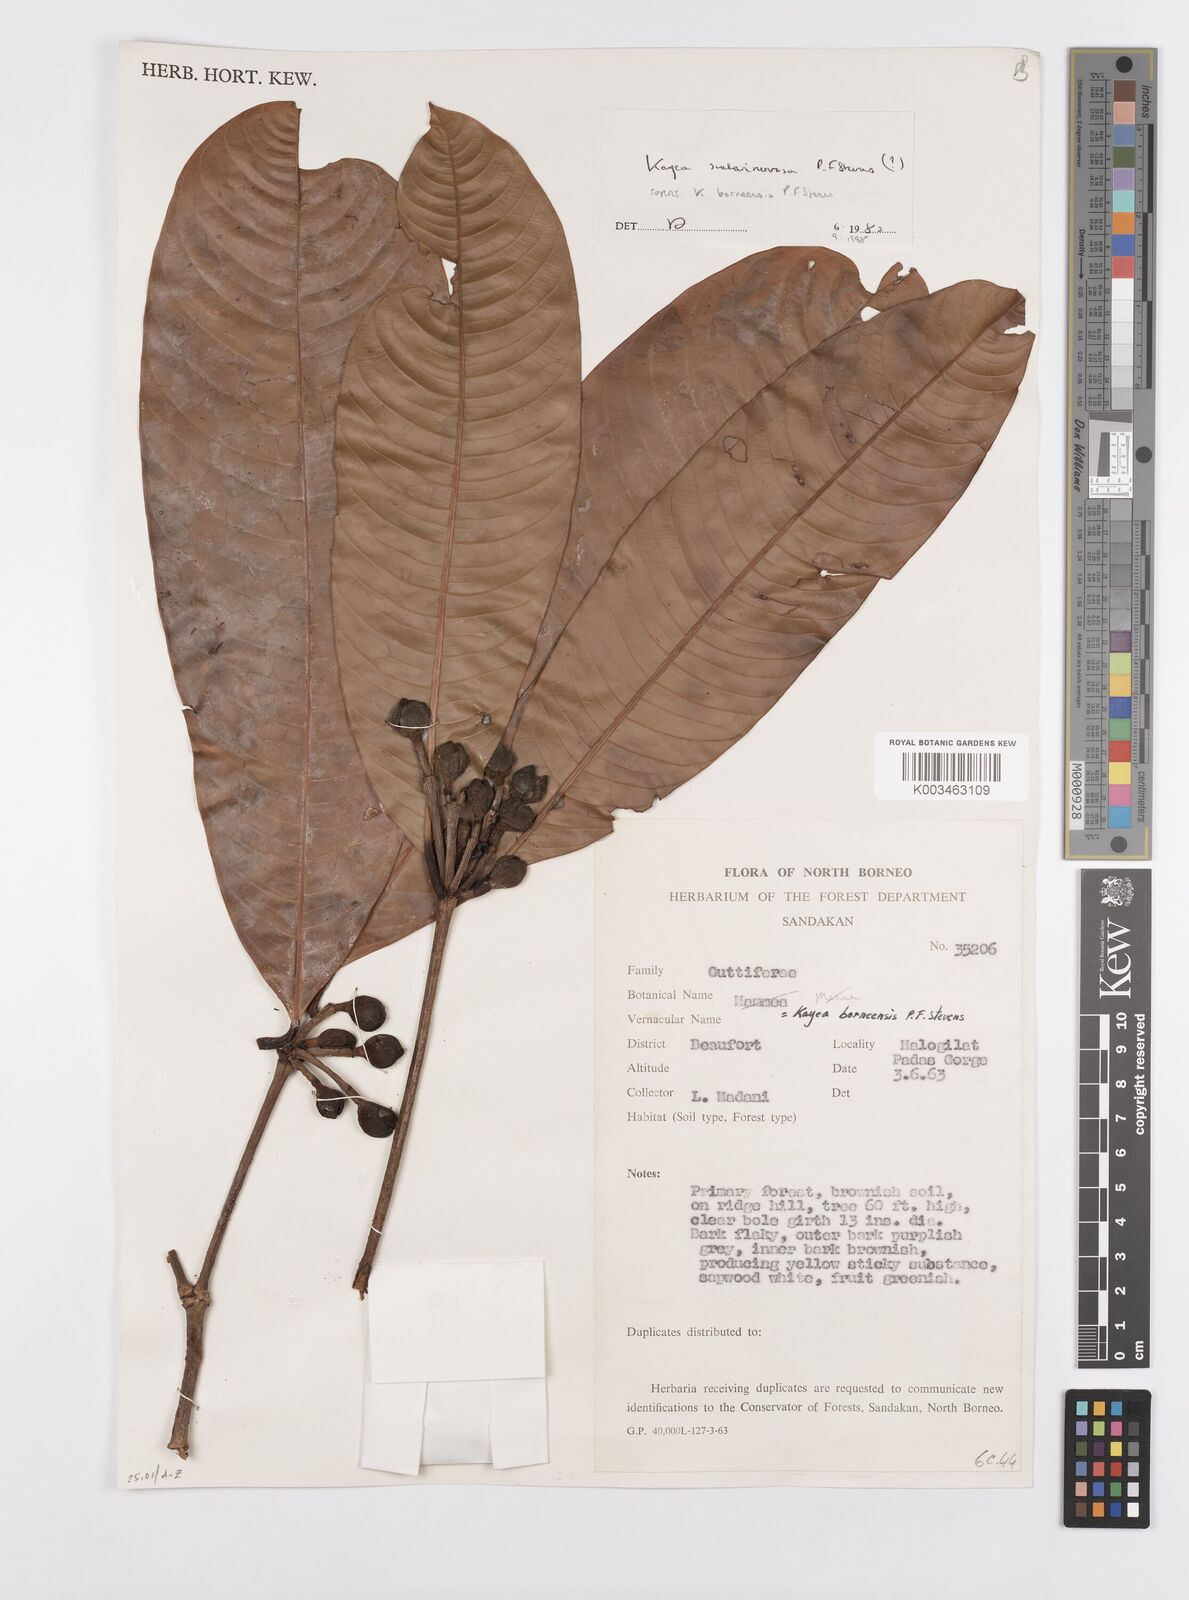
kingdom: Plantae
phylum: Tracheophyta
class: Magnoliopsida
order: Malpighiales
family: Calophyllaceae
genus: Kayea
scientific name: Kayea borneensis
